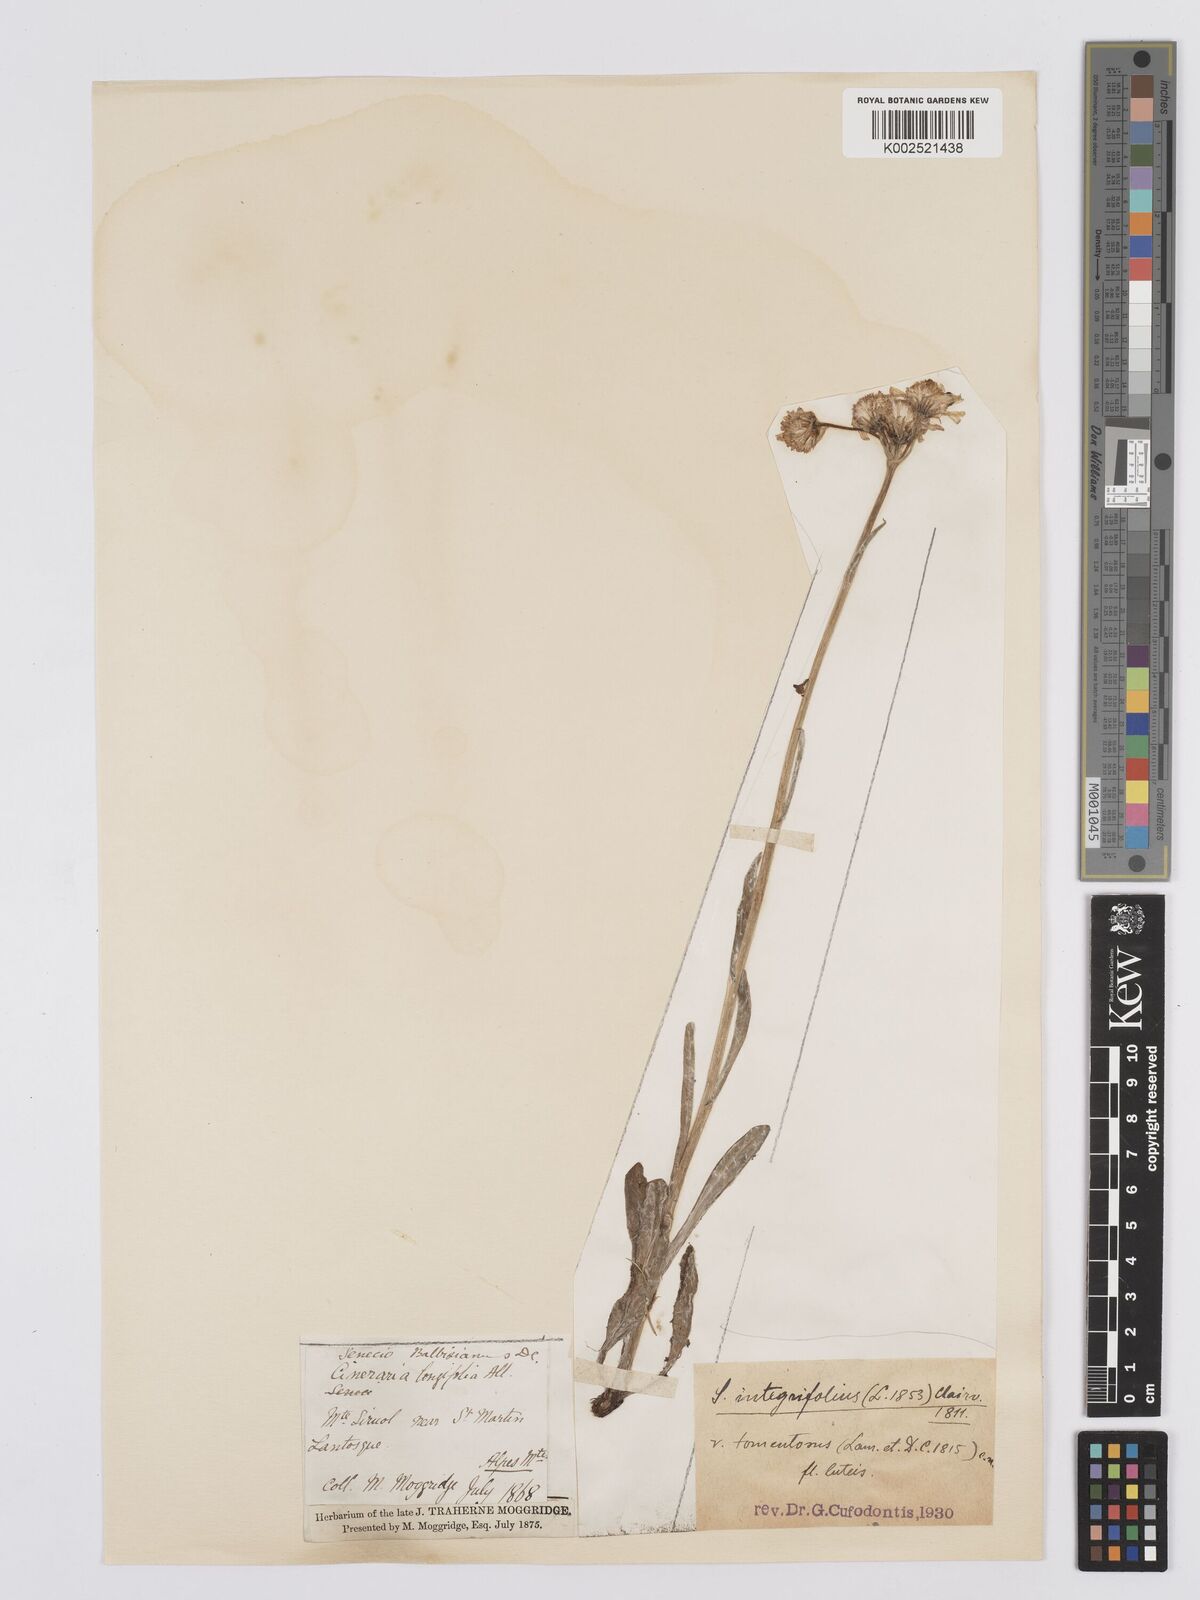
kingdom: Plantae
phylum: Tracheophyta
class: Magnoliopsida
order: Asterales
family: Asteraceae
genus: Tephroseris
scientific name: Tephroseris integrifolia
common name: Field fleawort
